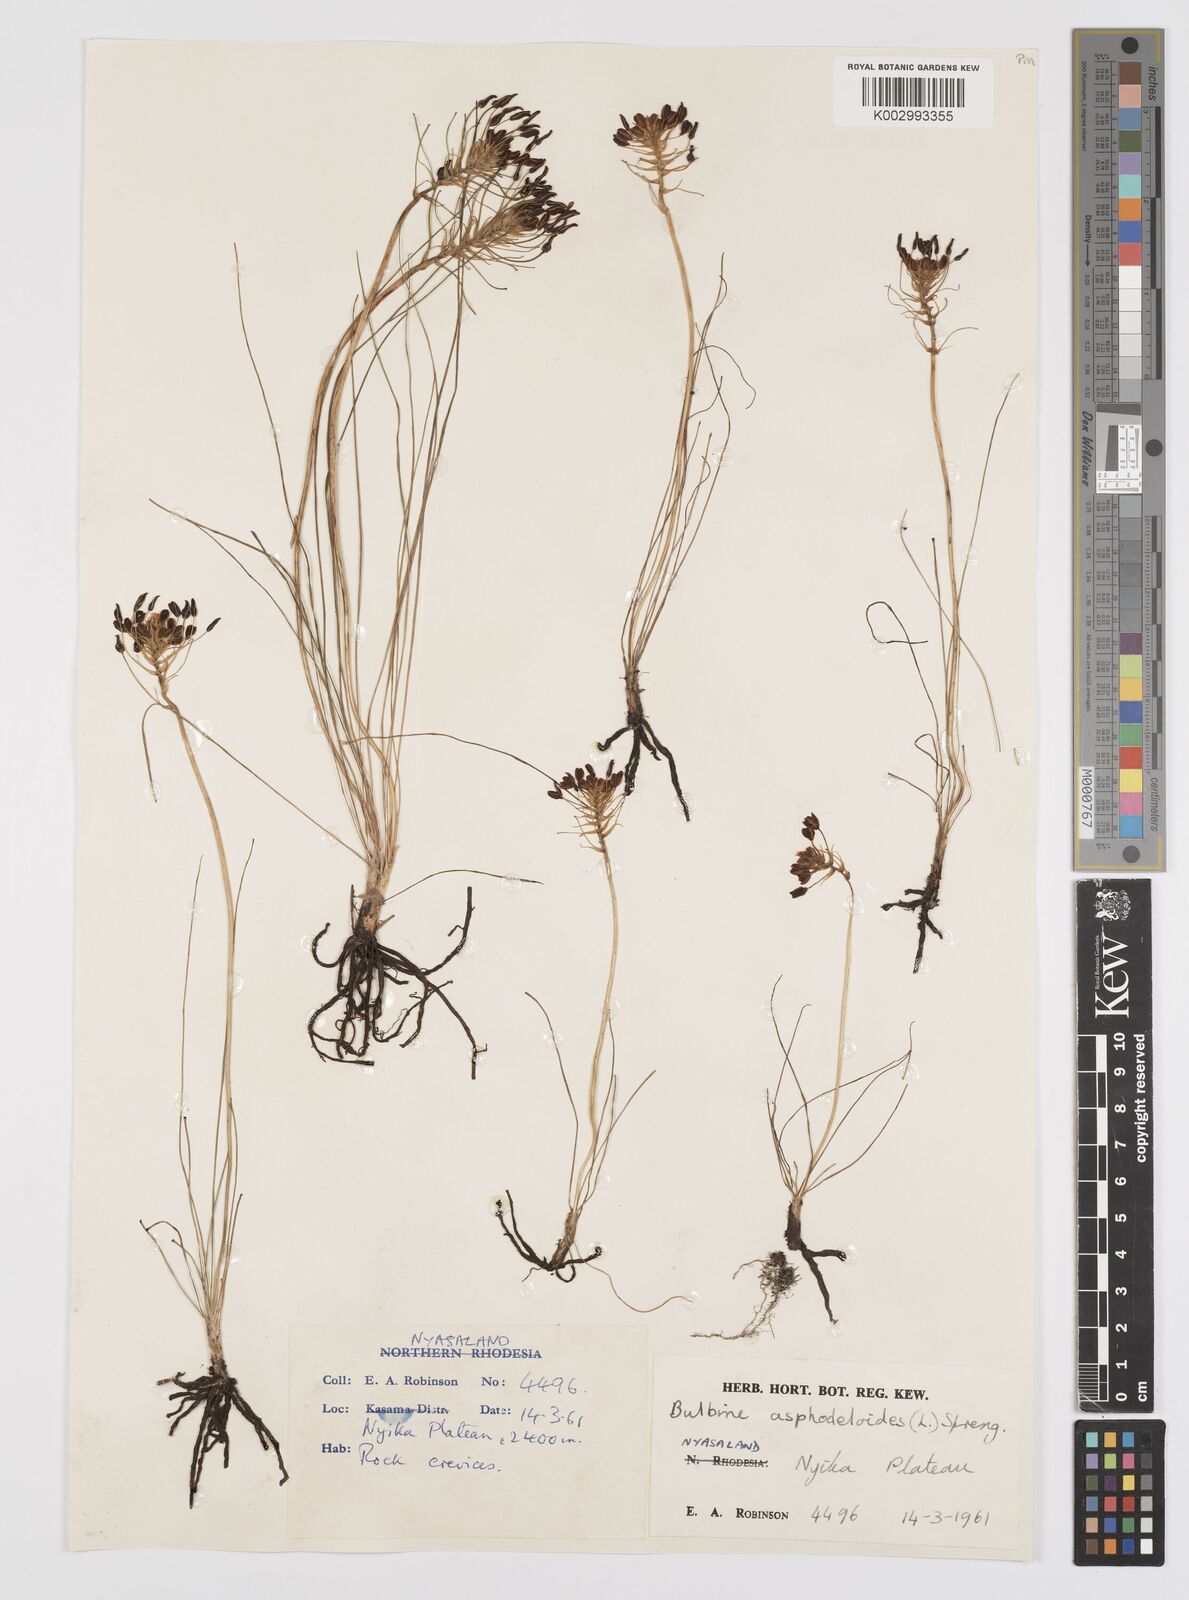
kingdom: Plantae
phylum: Tracheophyta
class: Liliopsida
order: Asparagales
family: Asphodelaceae
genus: Bulbine
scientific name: Bulbine abyssinica
